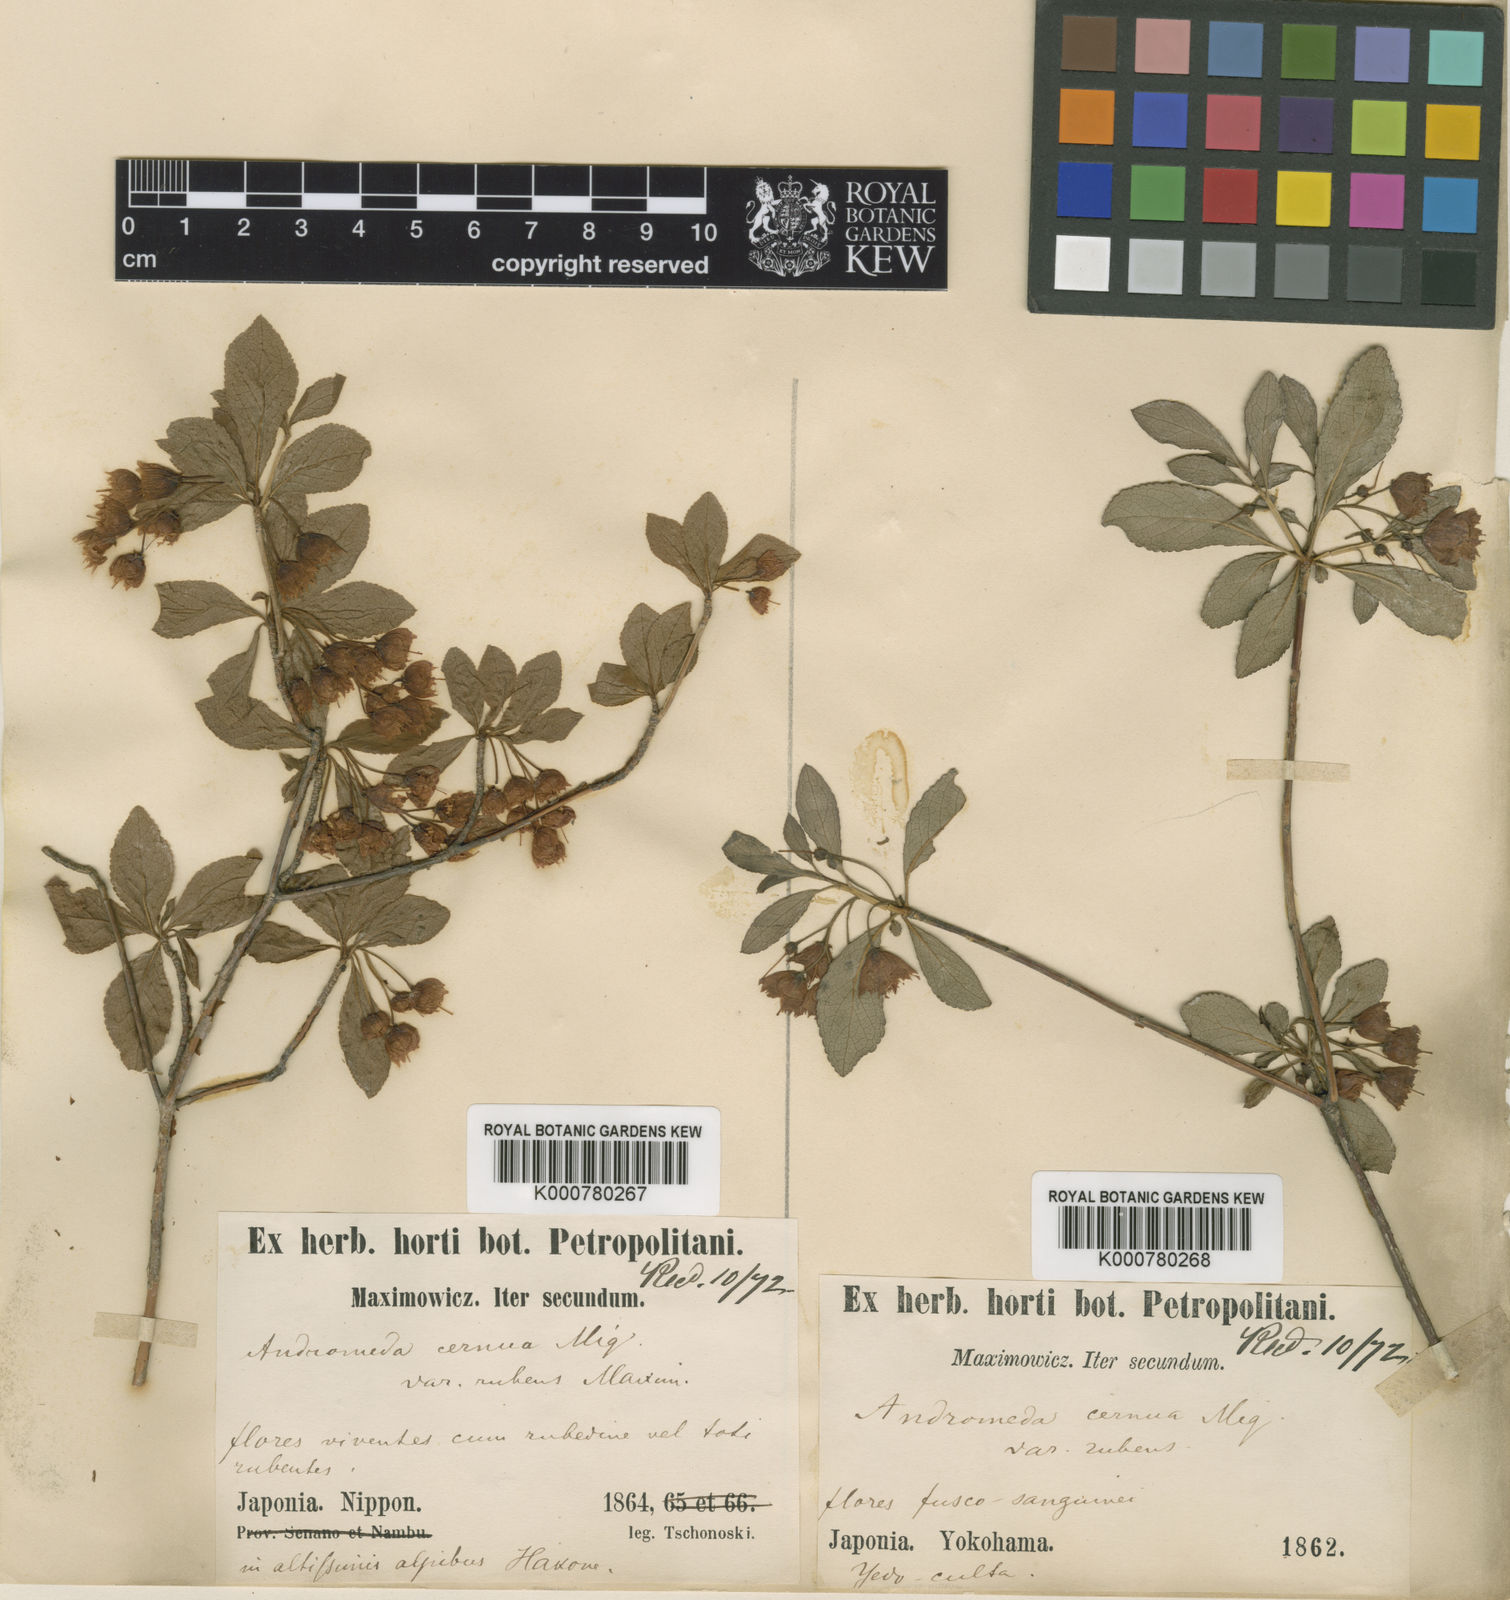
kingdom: Plantae
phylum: Tracheophyta
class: Magnoliopsida
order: Ericales
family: Ericaceae
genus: Enkianthus
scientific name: Enkianthus cernuus
